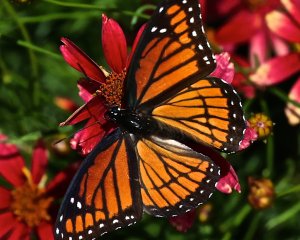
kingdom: Animalia
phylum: Arthropoda
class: Insecta
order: Lepidoptera
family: Nymphalidae
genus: Limenitis
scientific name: Limenitis archippus
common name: Viceroy
